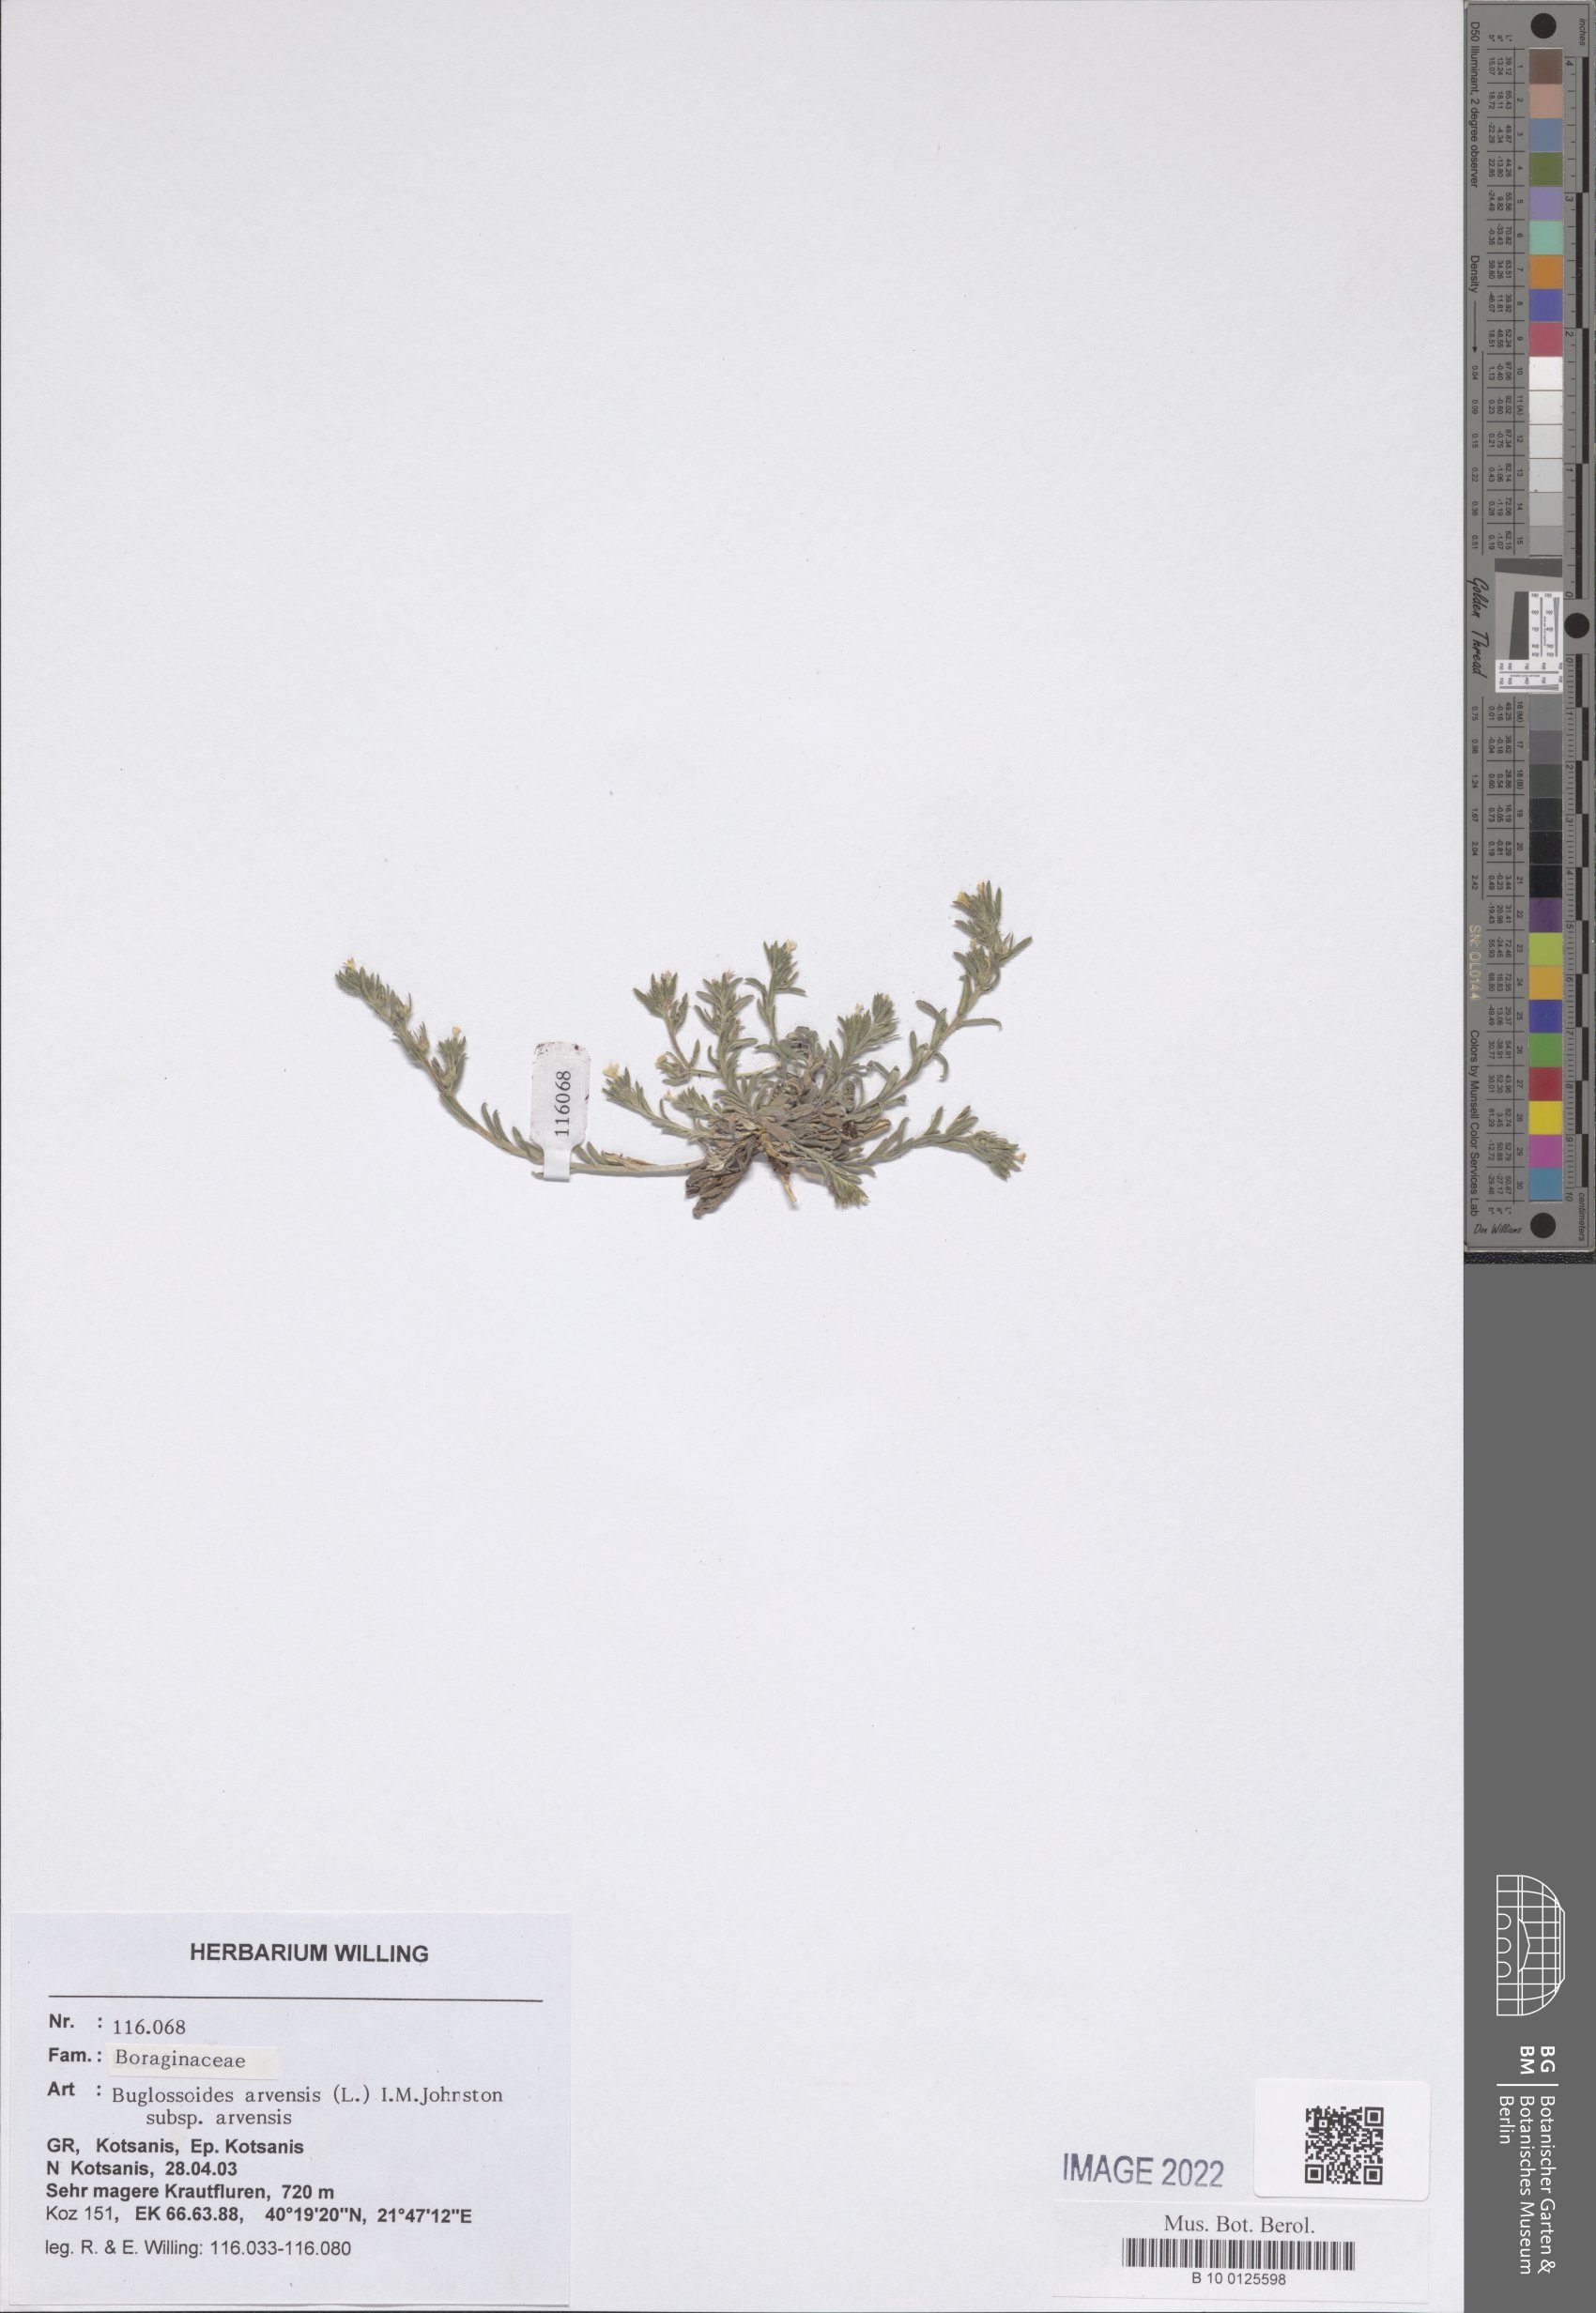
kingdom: Plantae
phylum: Tracheophyta
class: Magnoliopsida
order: Boraginales
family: Boraginaceae
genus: Buglossoides
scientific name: Buglossoides arvensis
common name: Corn gromwell
